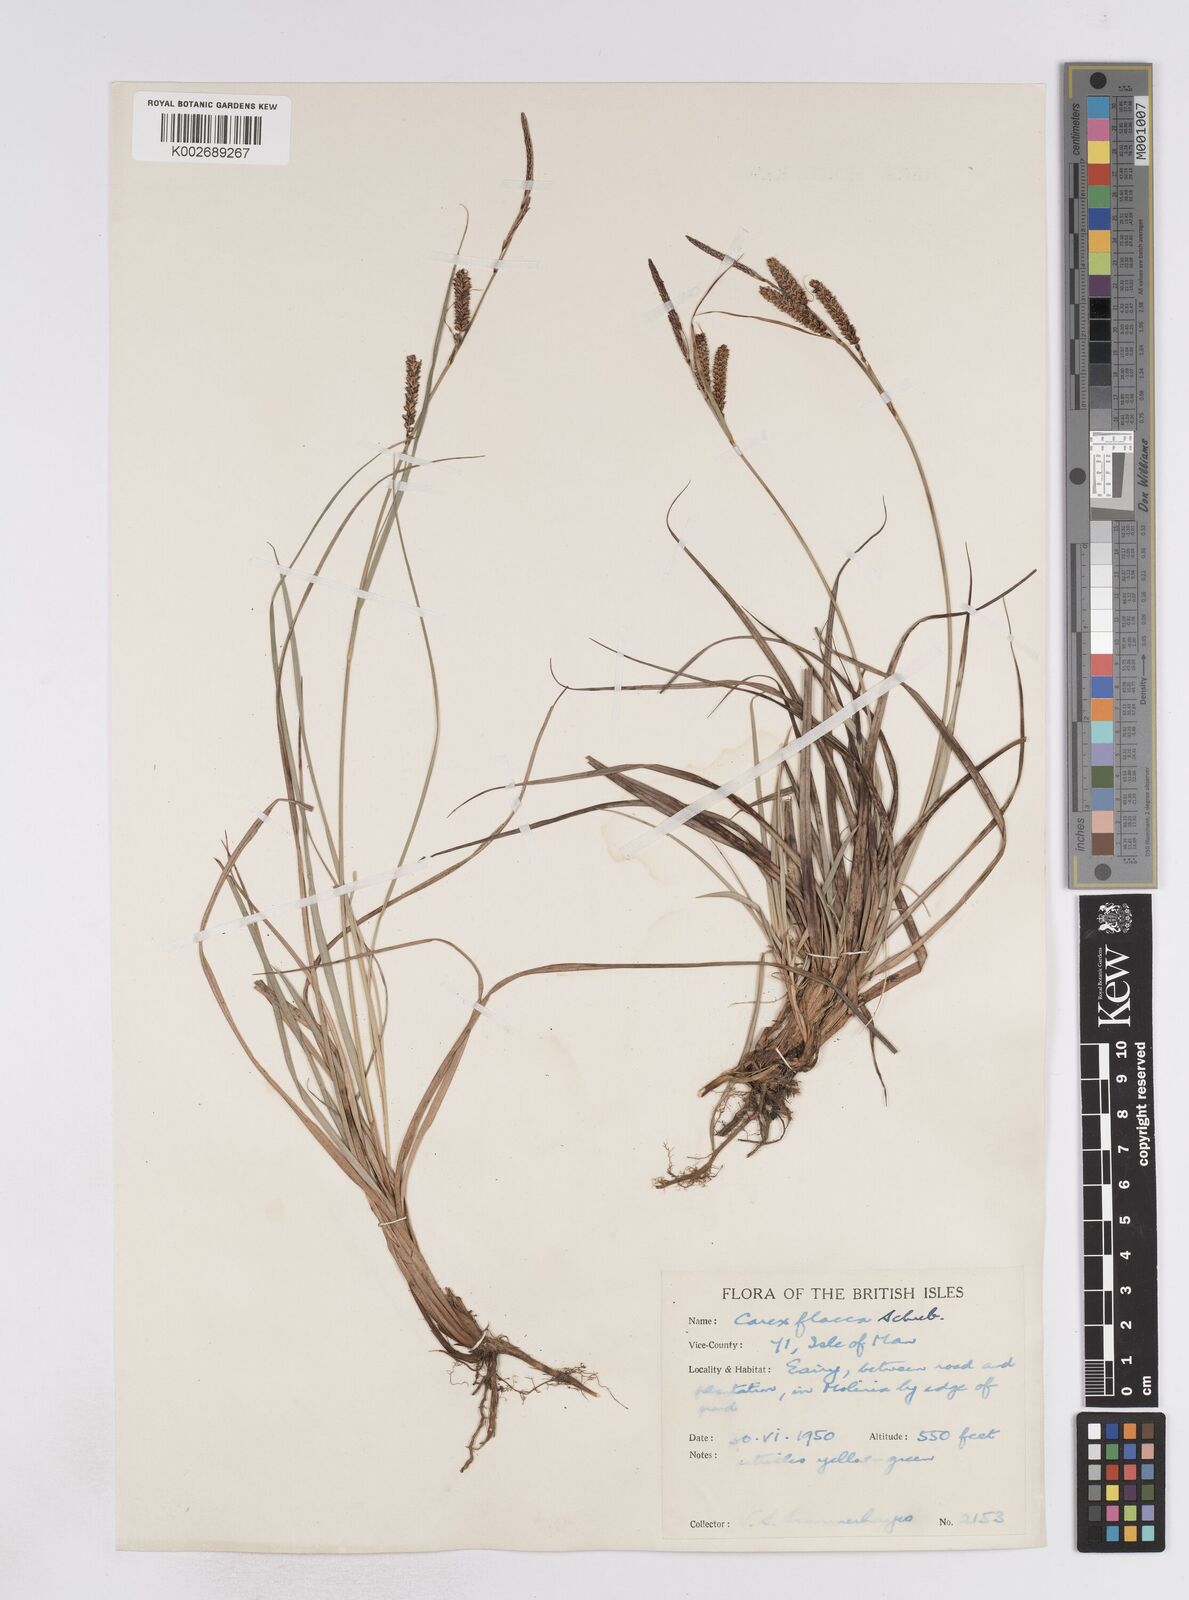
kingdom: Plantae
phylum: Tracheophyta
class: Liliopsida
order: Poales
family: Cyperaceae
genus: Carex
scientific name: Carex flacca
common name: Glaucous sedge
